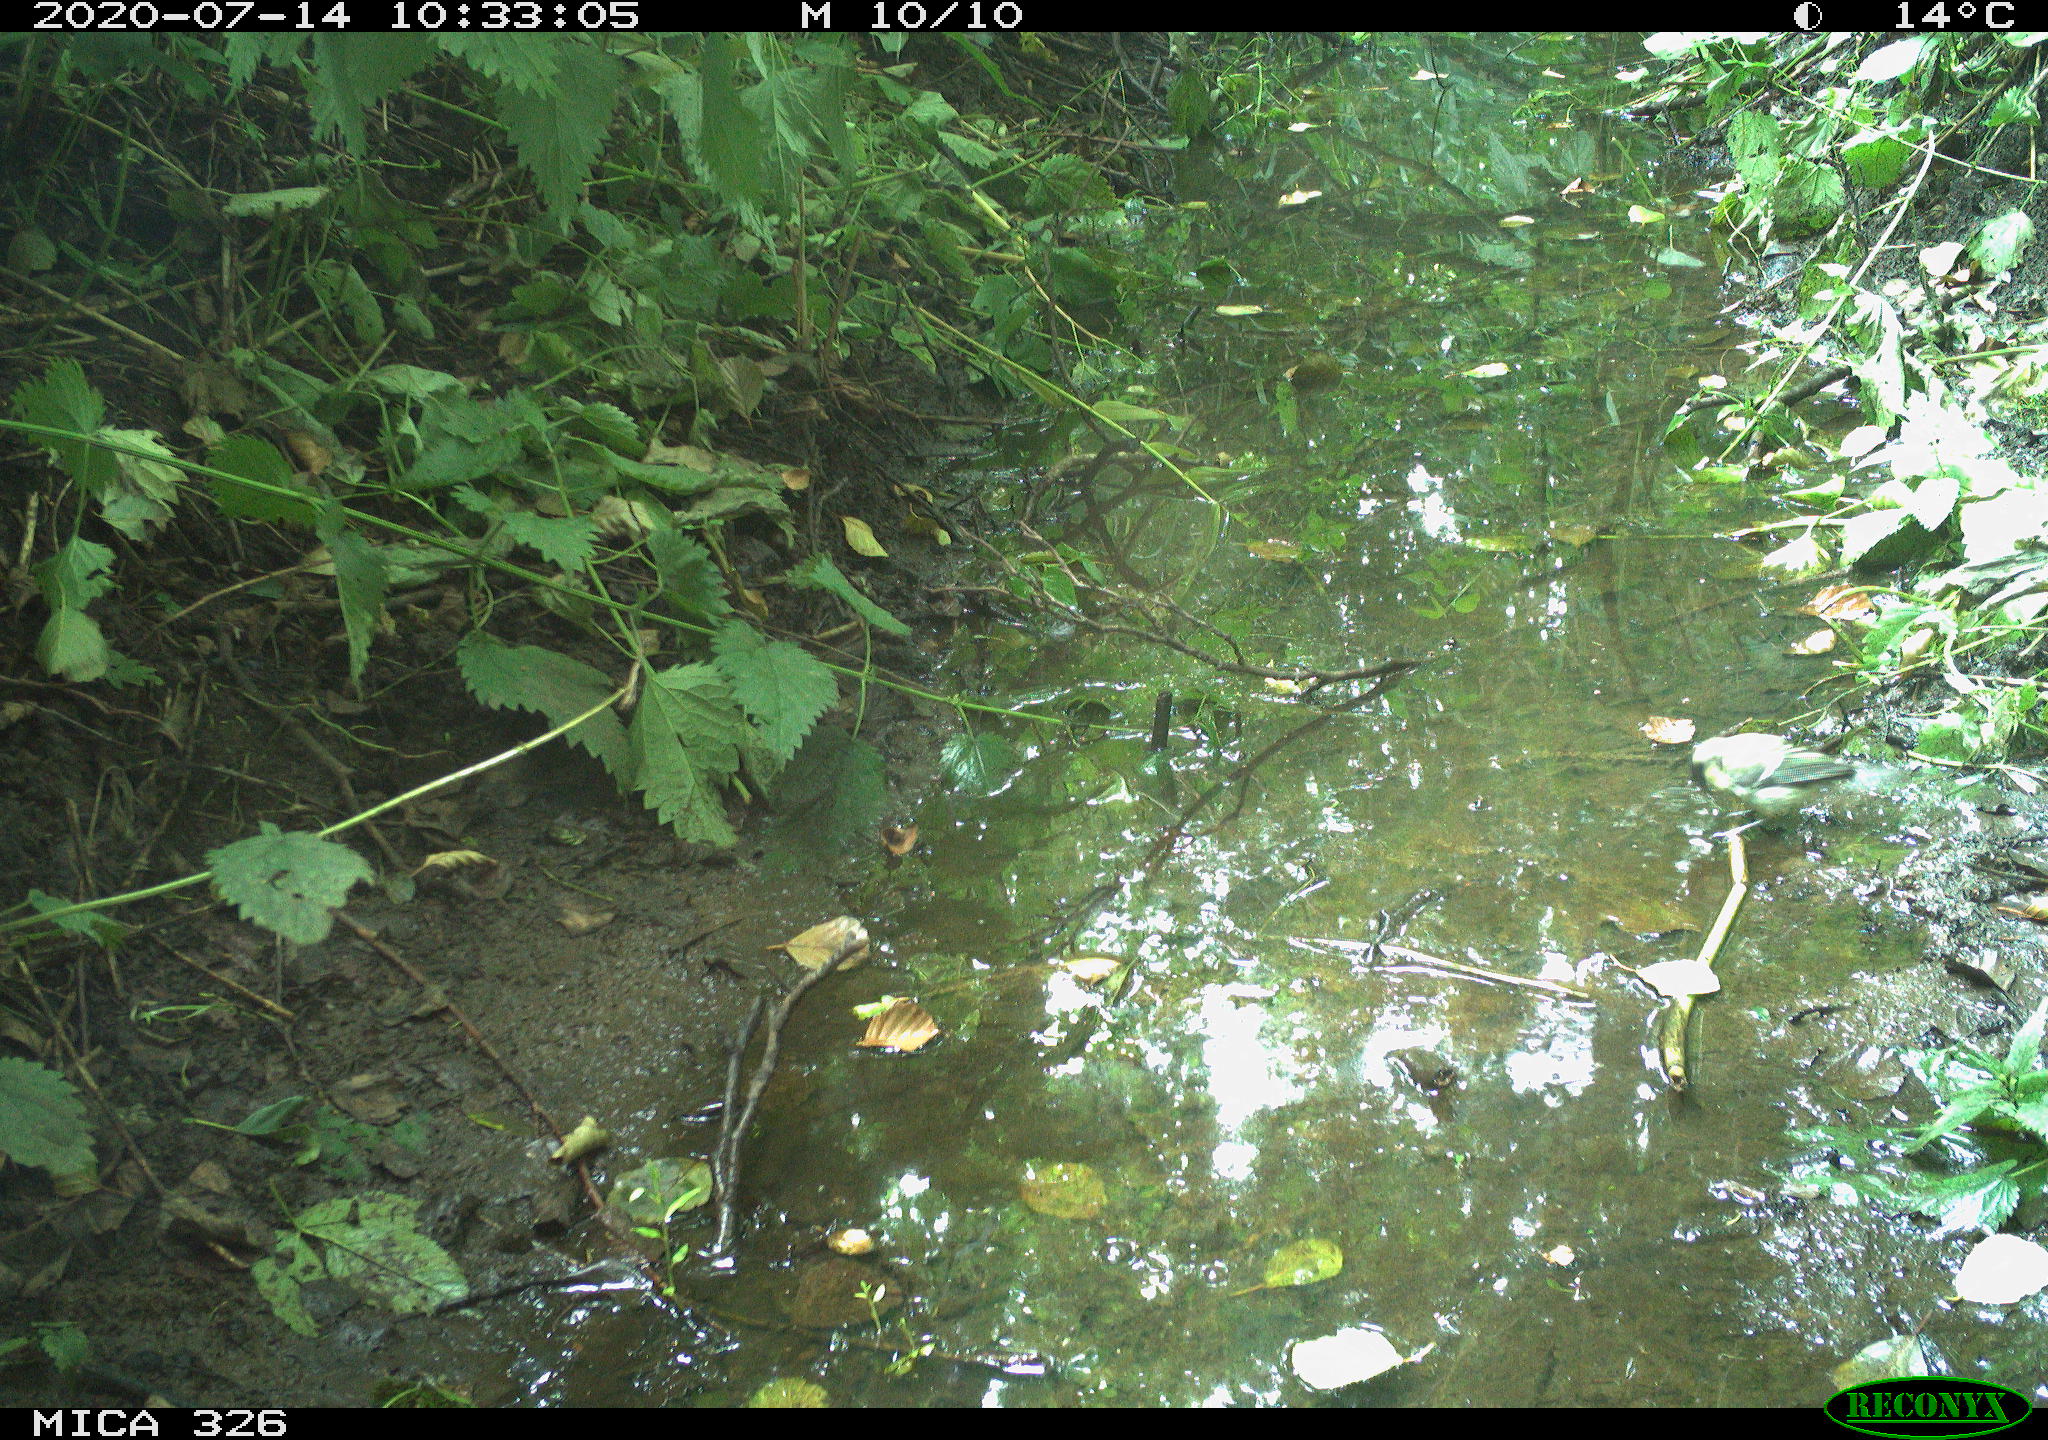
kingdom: Animalia
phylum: Chordata
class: Aves
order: Passeriformes
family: Paridae
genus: Parus
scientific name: Parus major
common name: Great tit
